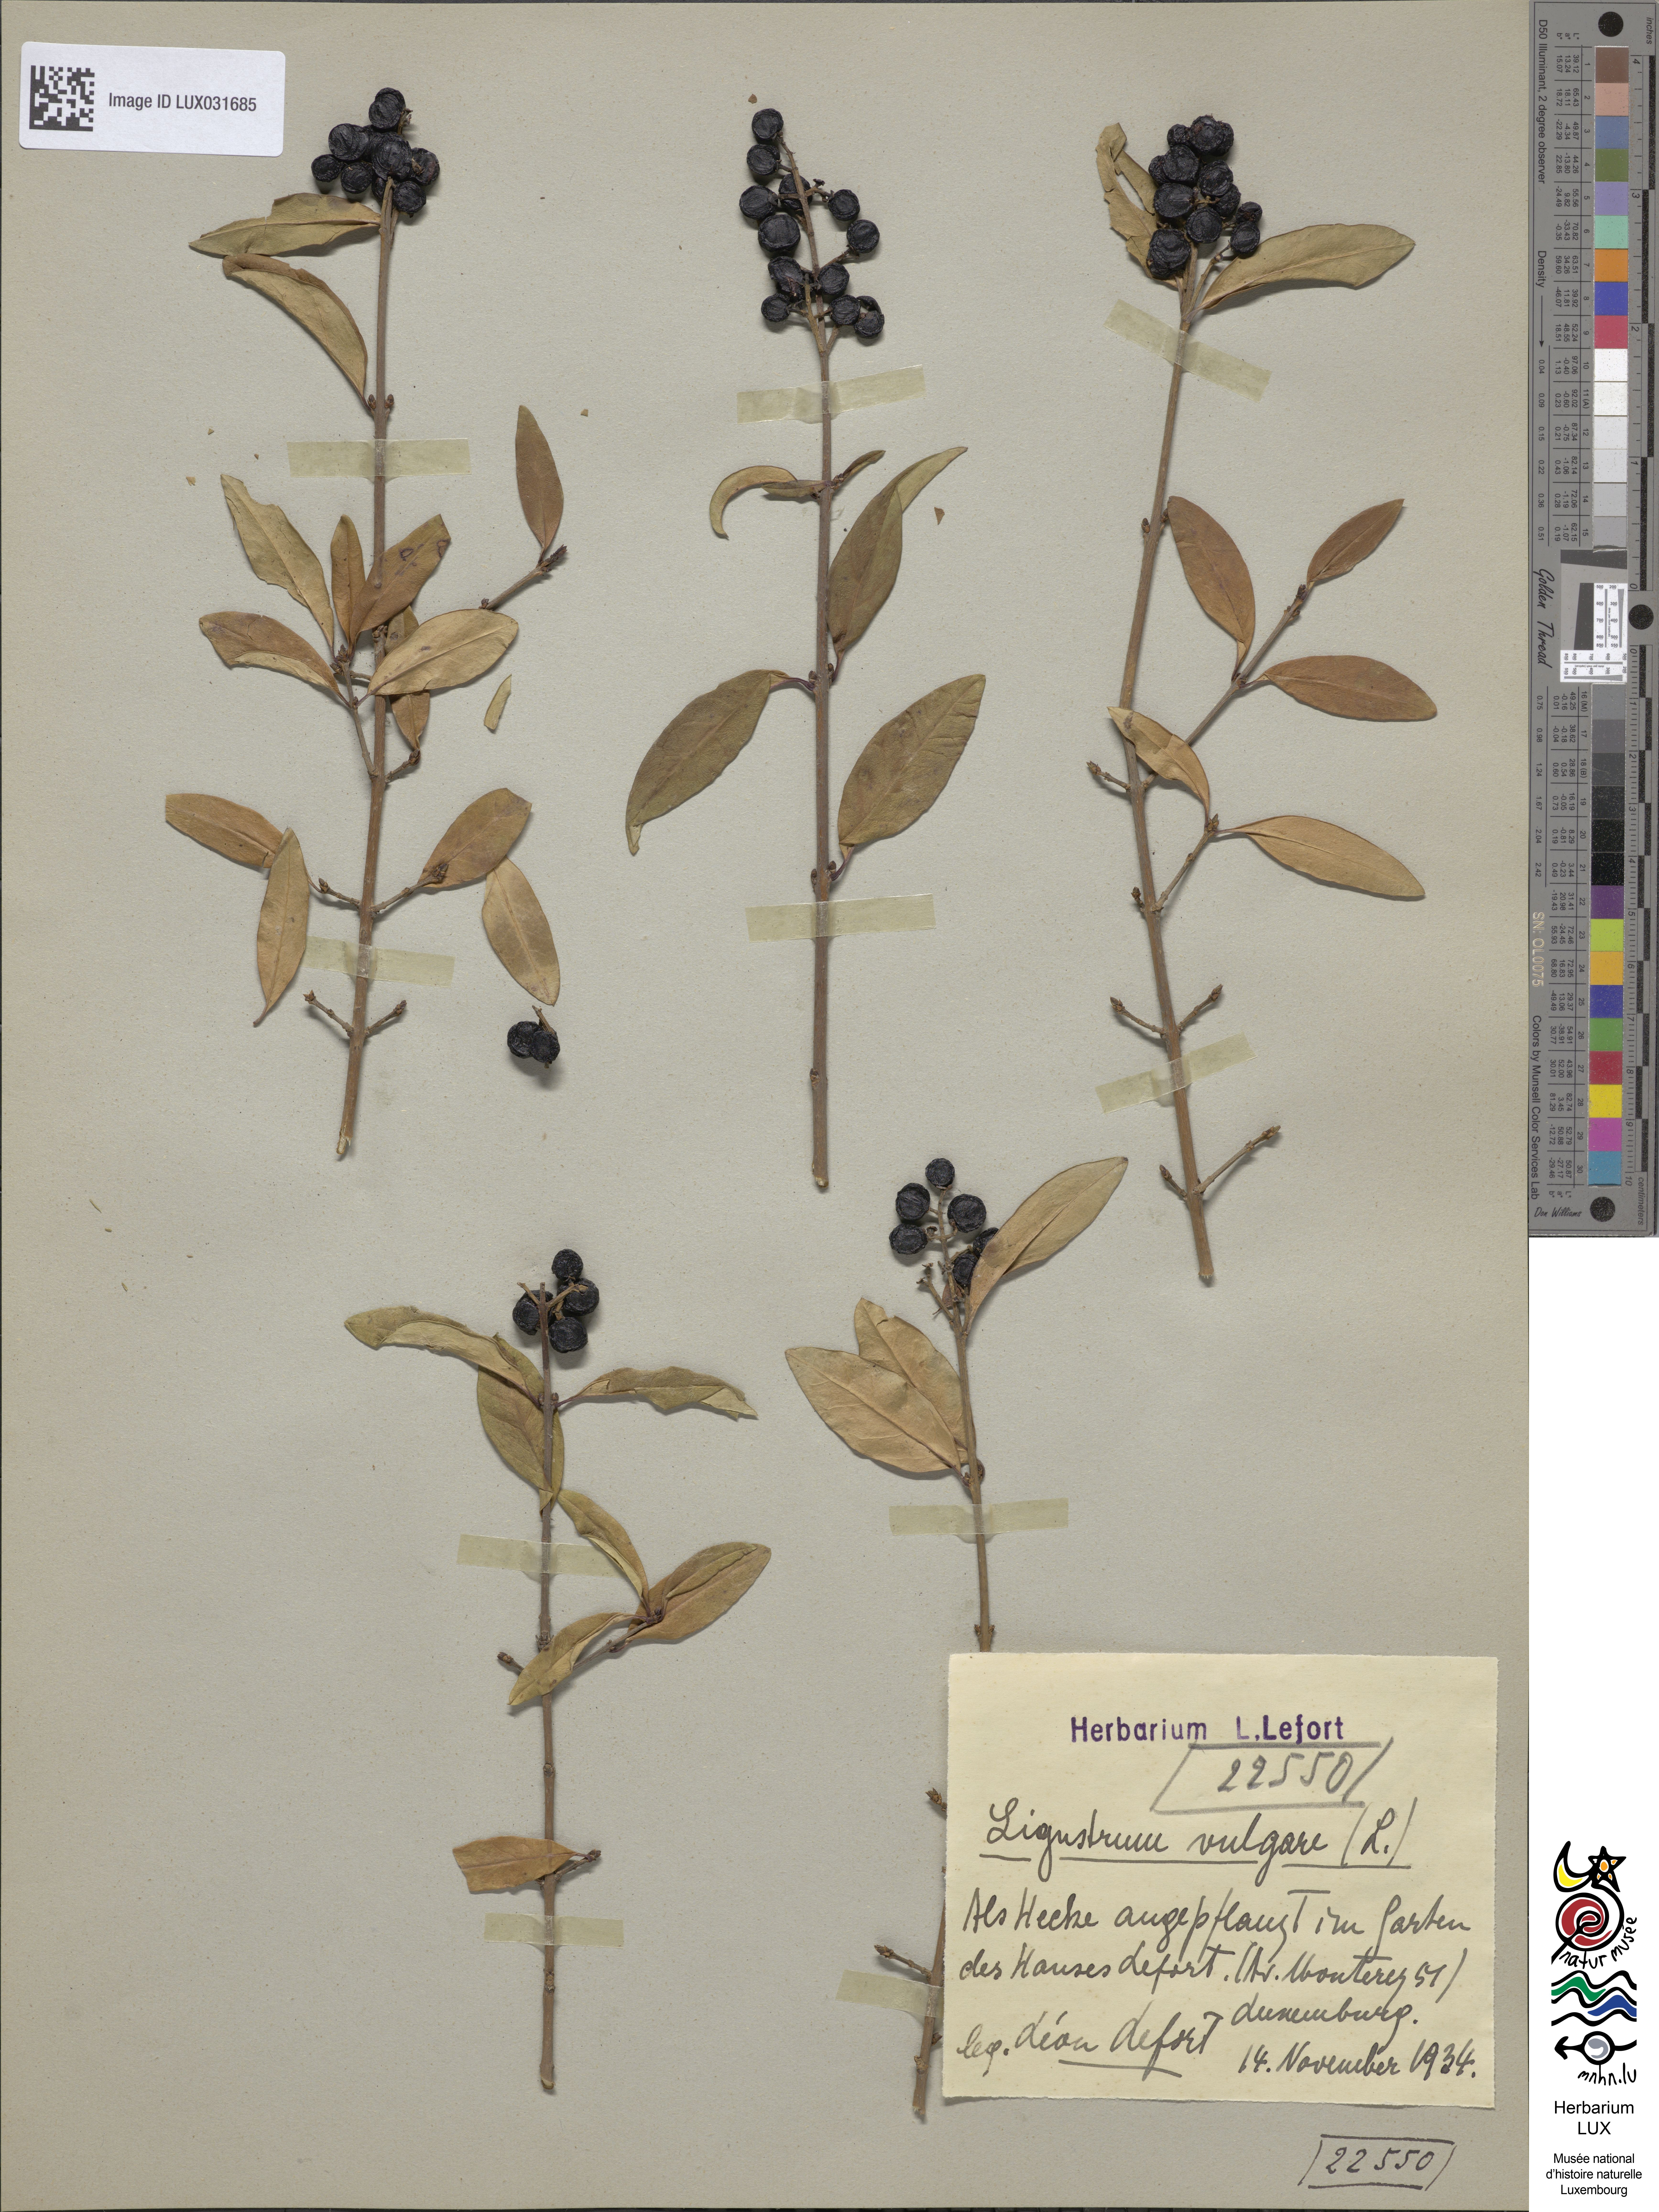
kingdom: Plantae
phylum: Tracheophyta
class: Magnoliopsida
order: Lamiales
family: Oleaceae
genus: Ligustrum
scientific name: Ligustrum vulgare
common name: Wild privet
